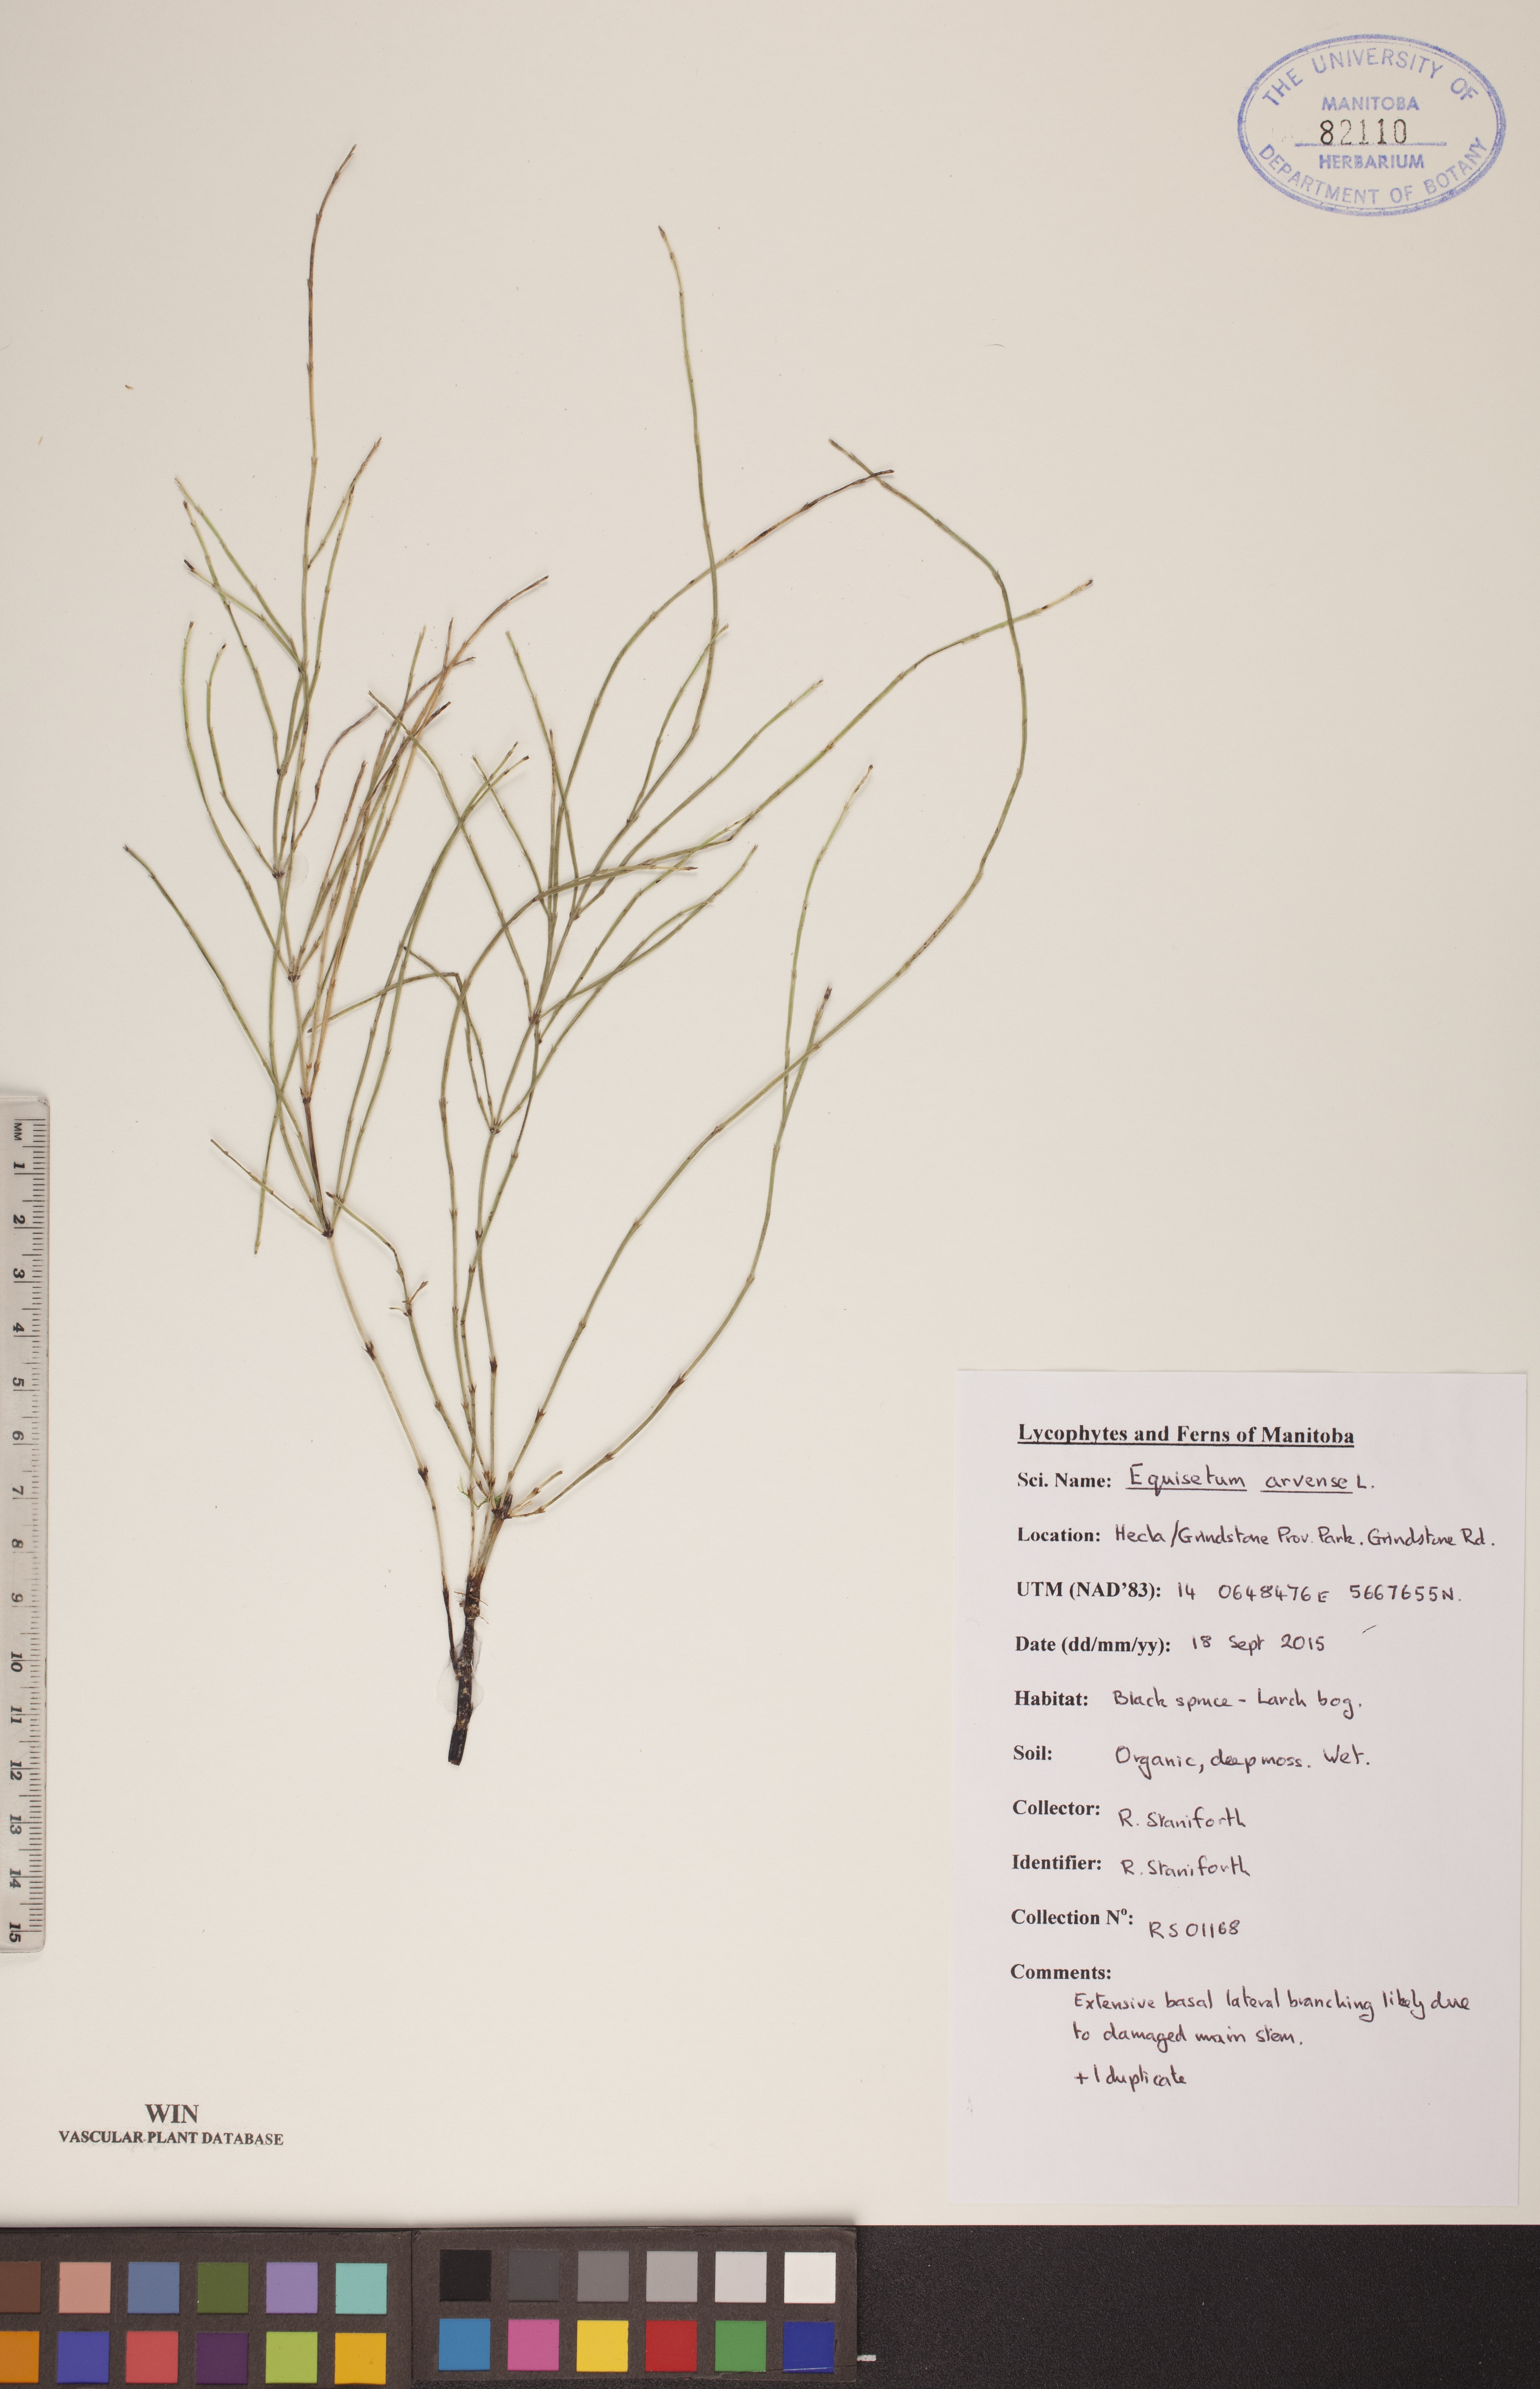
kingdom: Plantae
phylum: Tracheophyta
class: Polypodiopsida
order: Equisetales
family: Equisetaceae
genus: Equisetum
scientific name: Equisetum arvense
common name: Field horsetail
